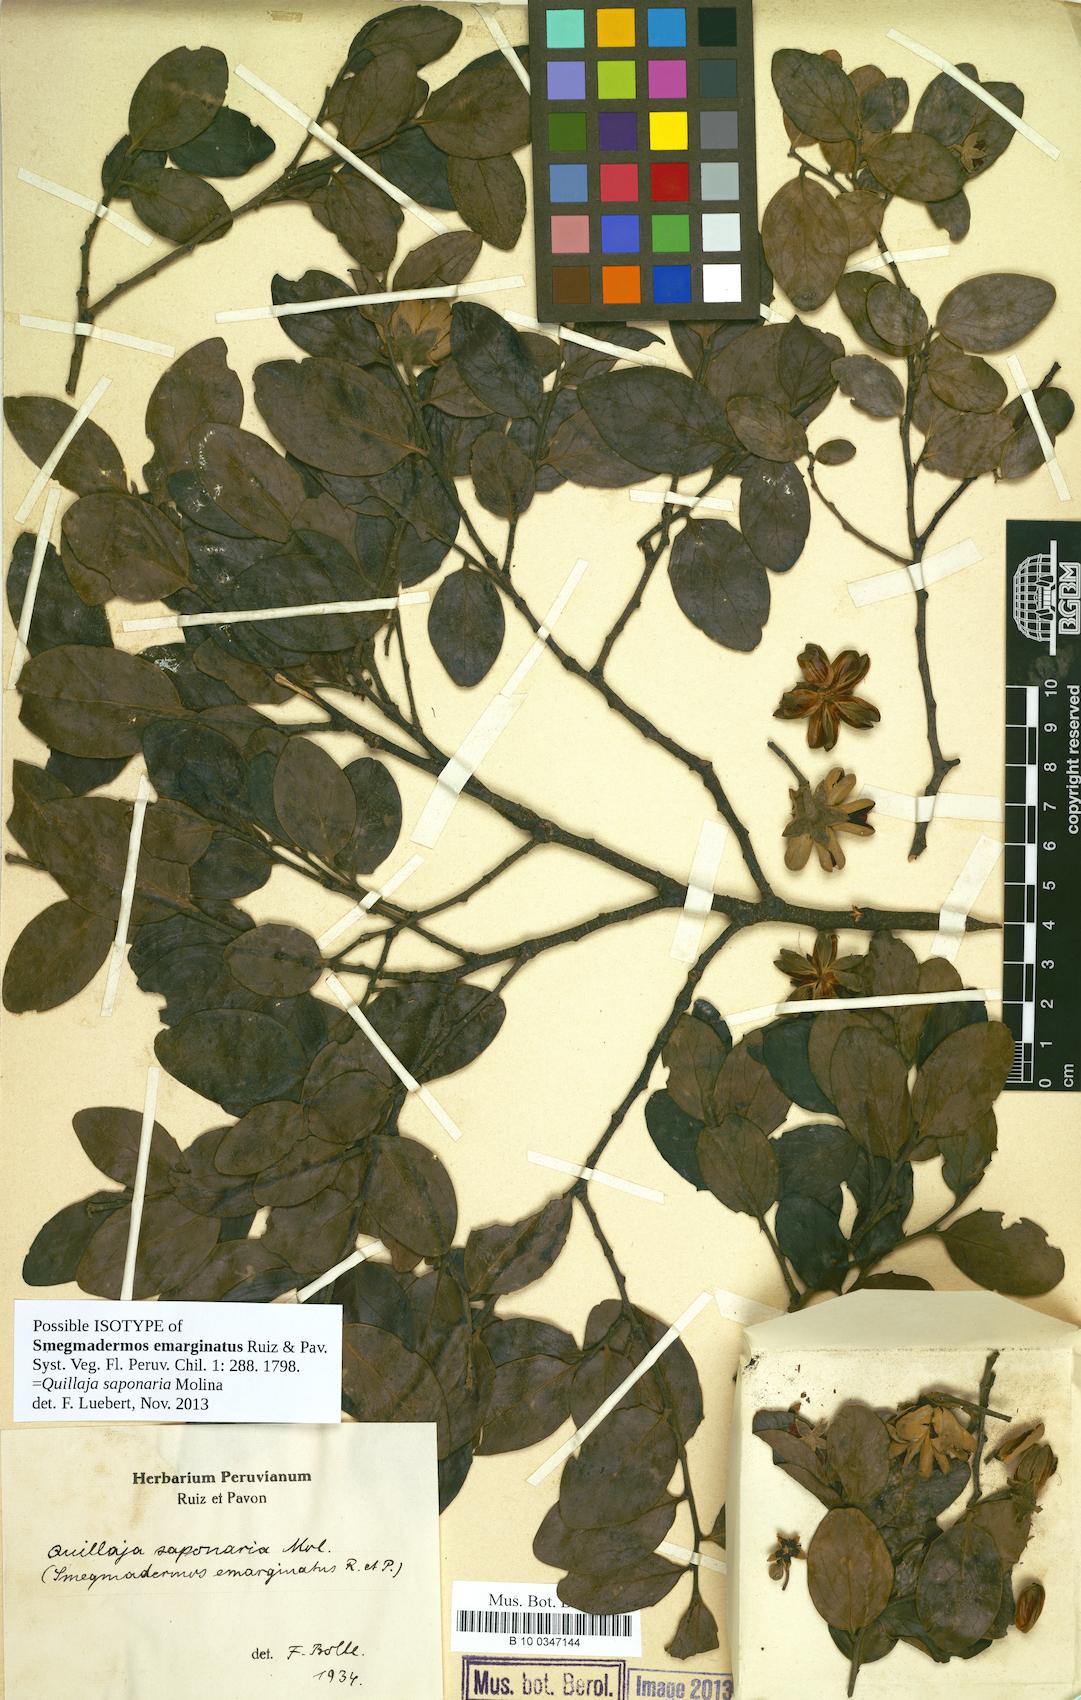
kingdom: Plantae
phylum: Tracheophyta
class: Magnoliopsida
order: Fabales
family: Quillajaceae
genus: Quillaja
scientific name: Quillaja saponaria
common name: Murillo's-bark
